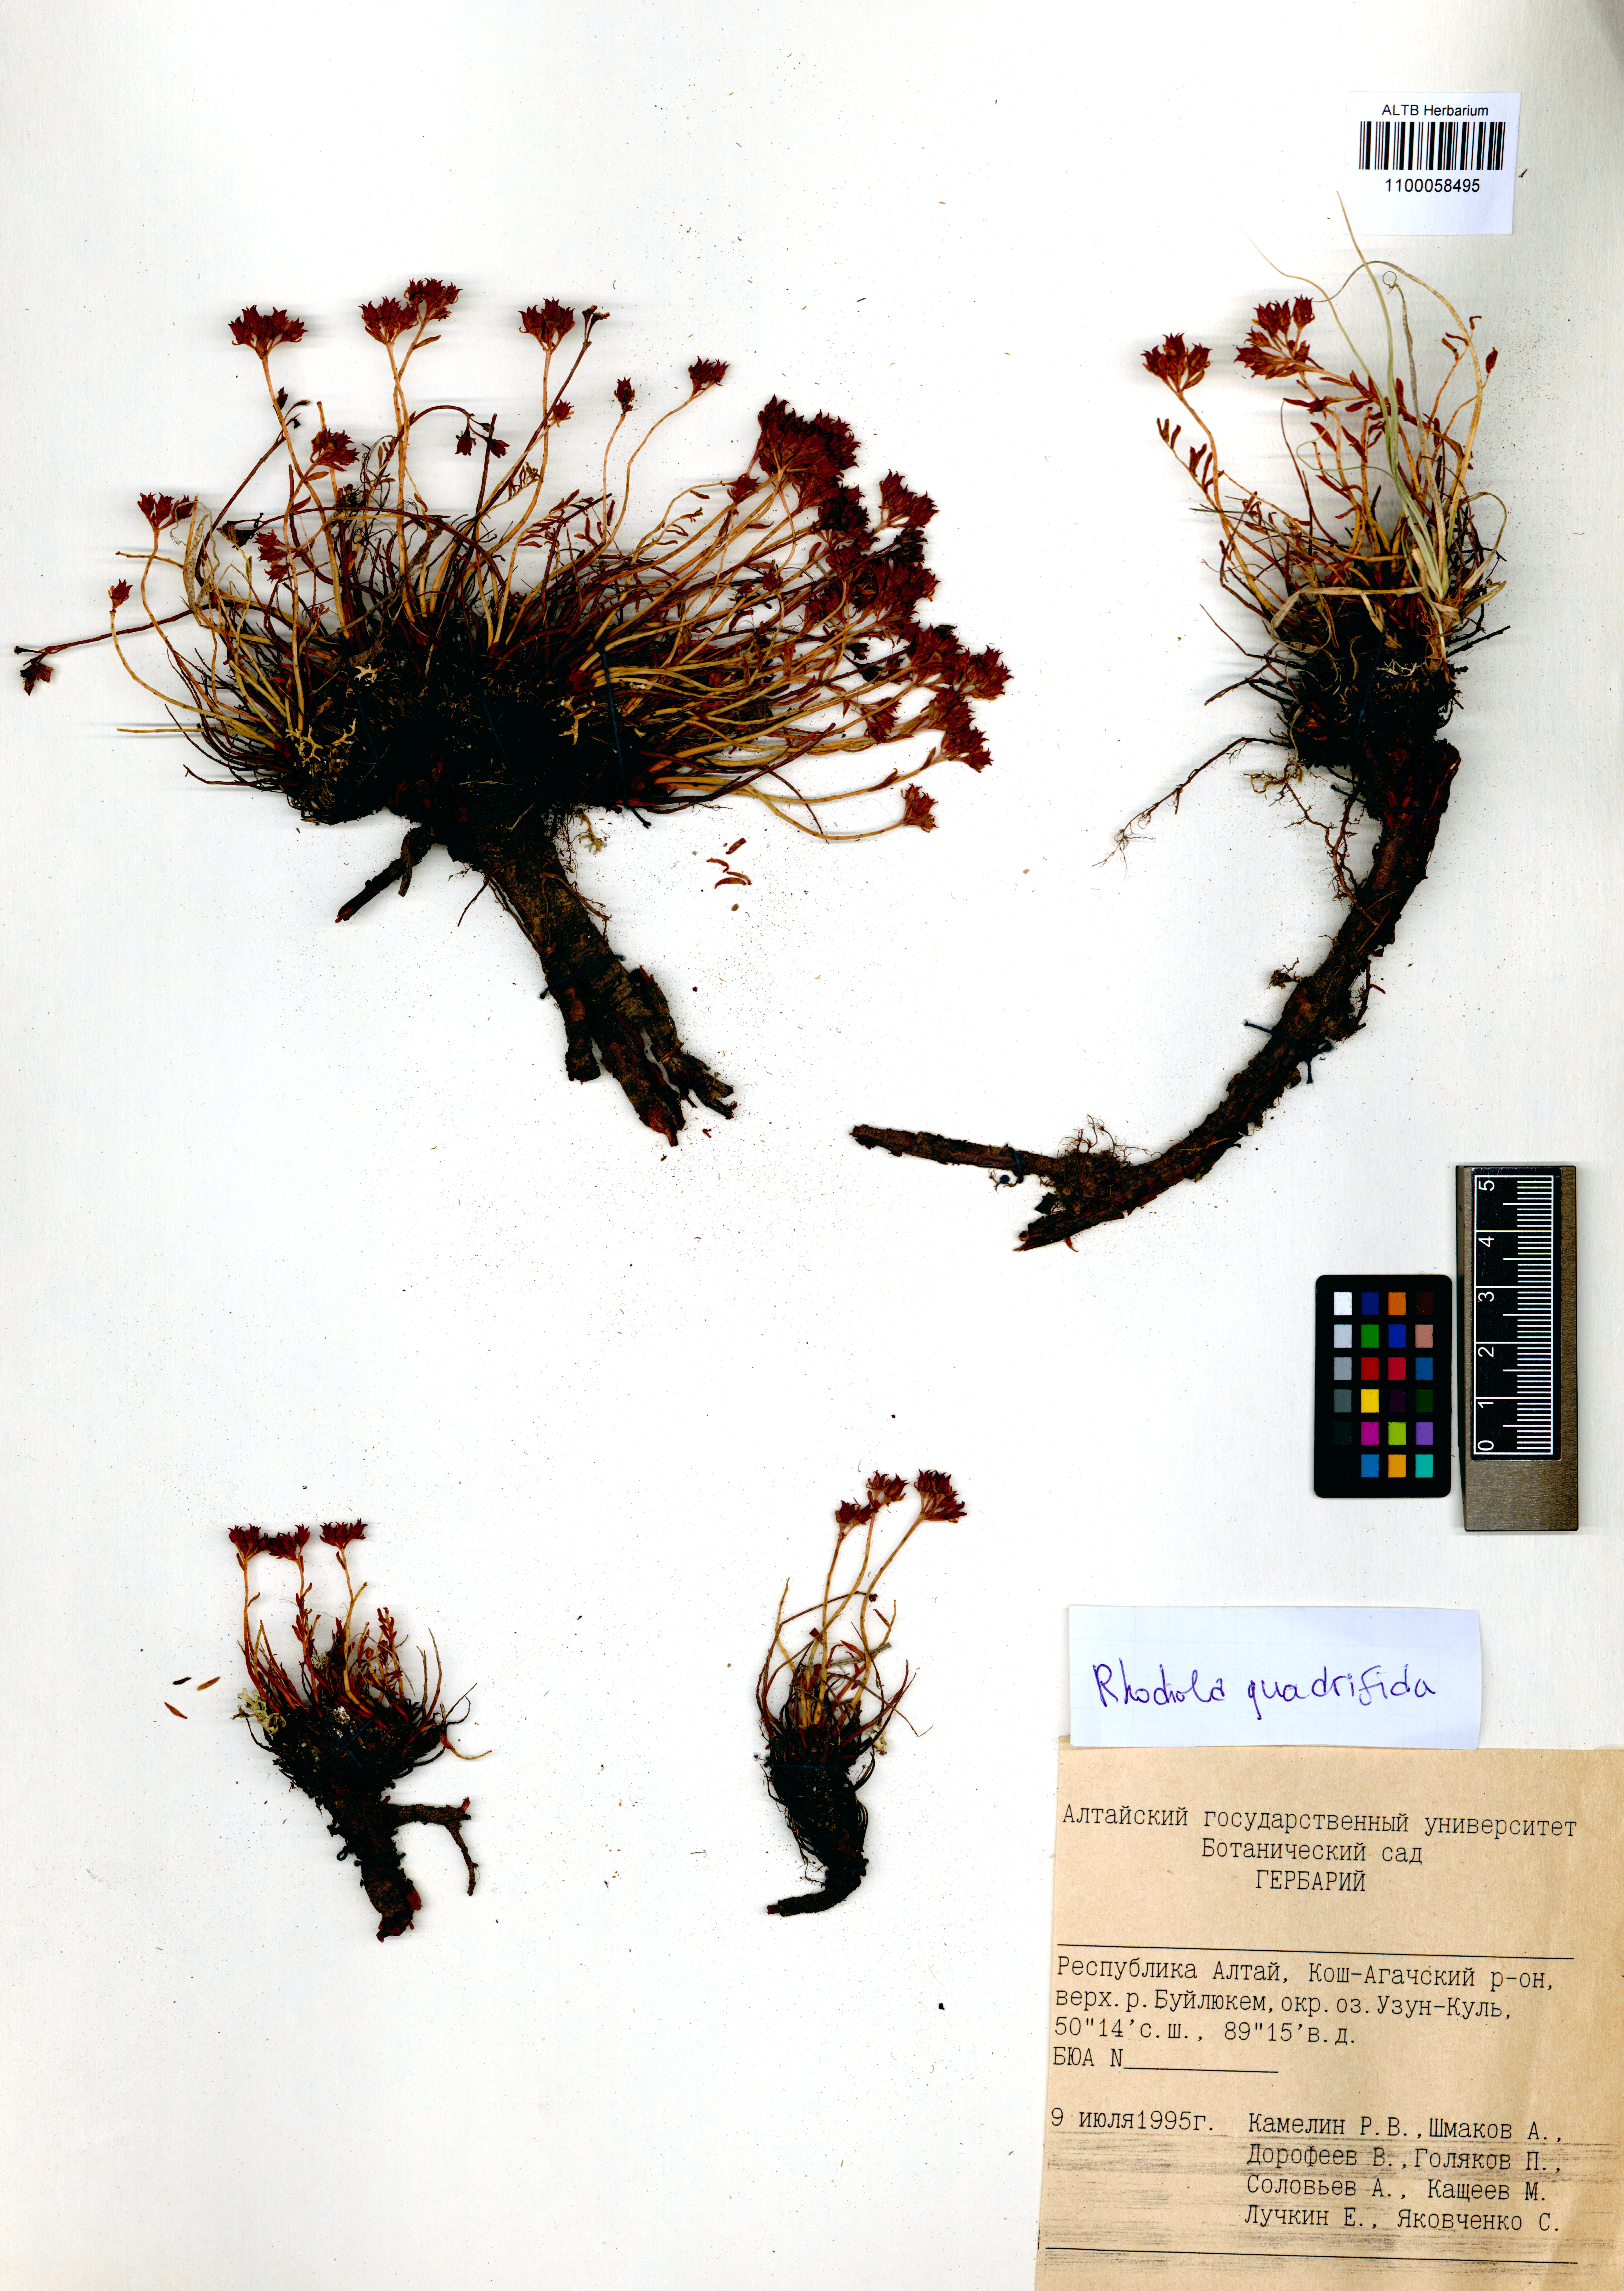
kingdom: Plantae
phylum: Tracheophyta
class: Magnoliopsida
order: Saxifragales
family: Crassulaceae
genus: Rhodiola
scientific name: Rhodiola quadrifida
